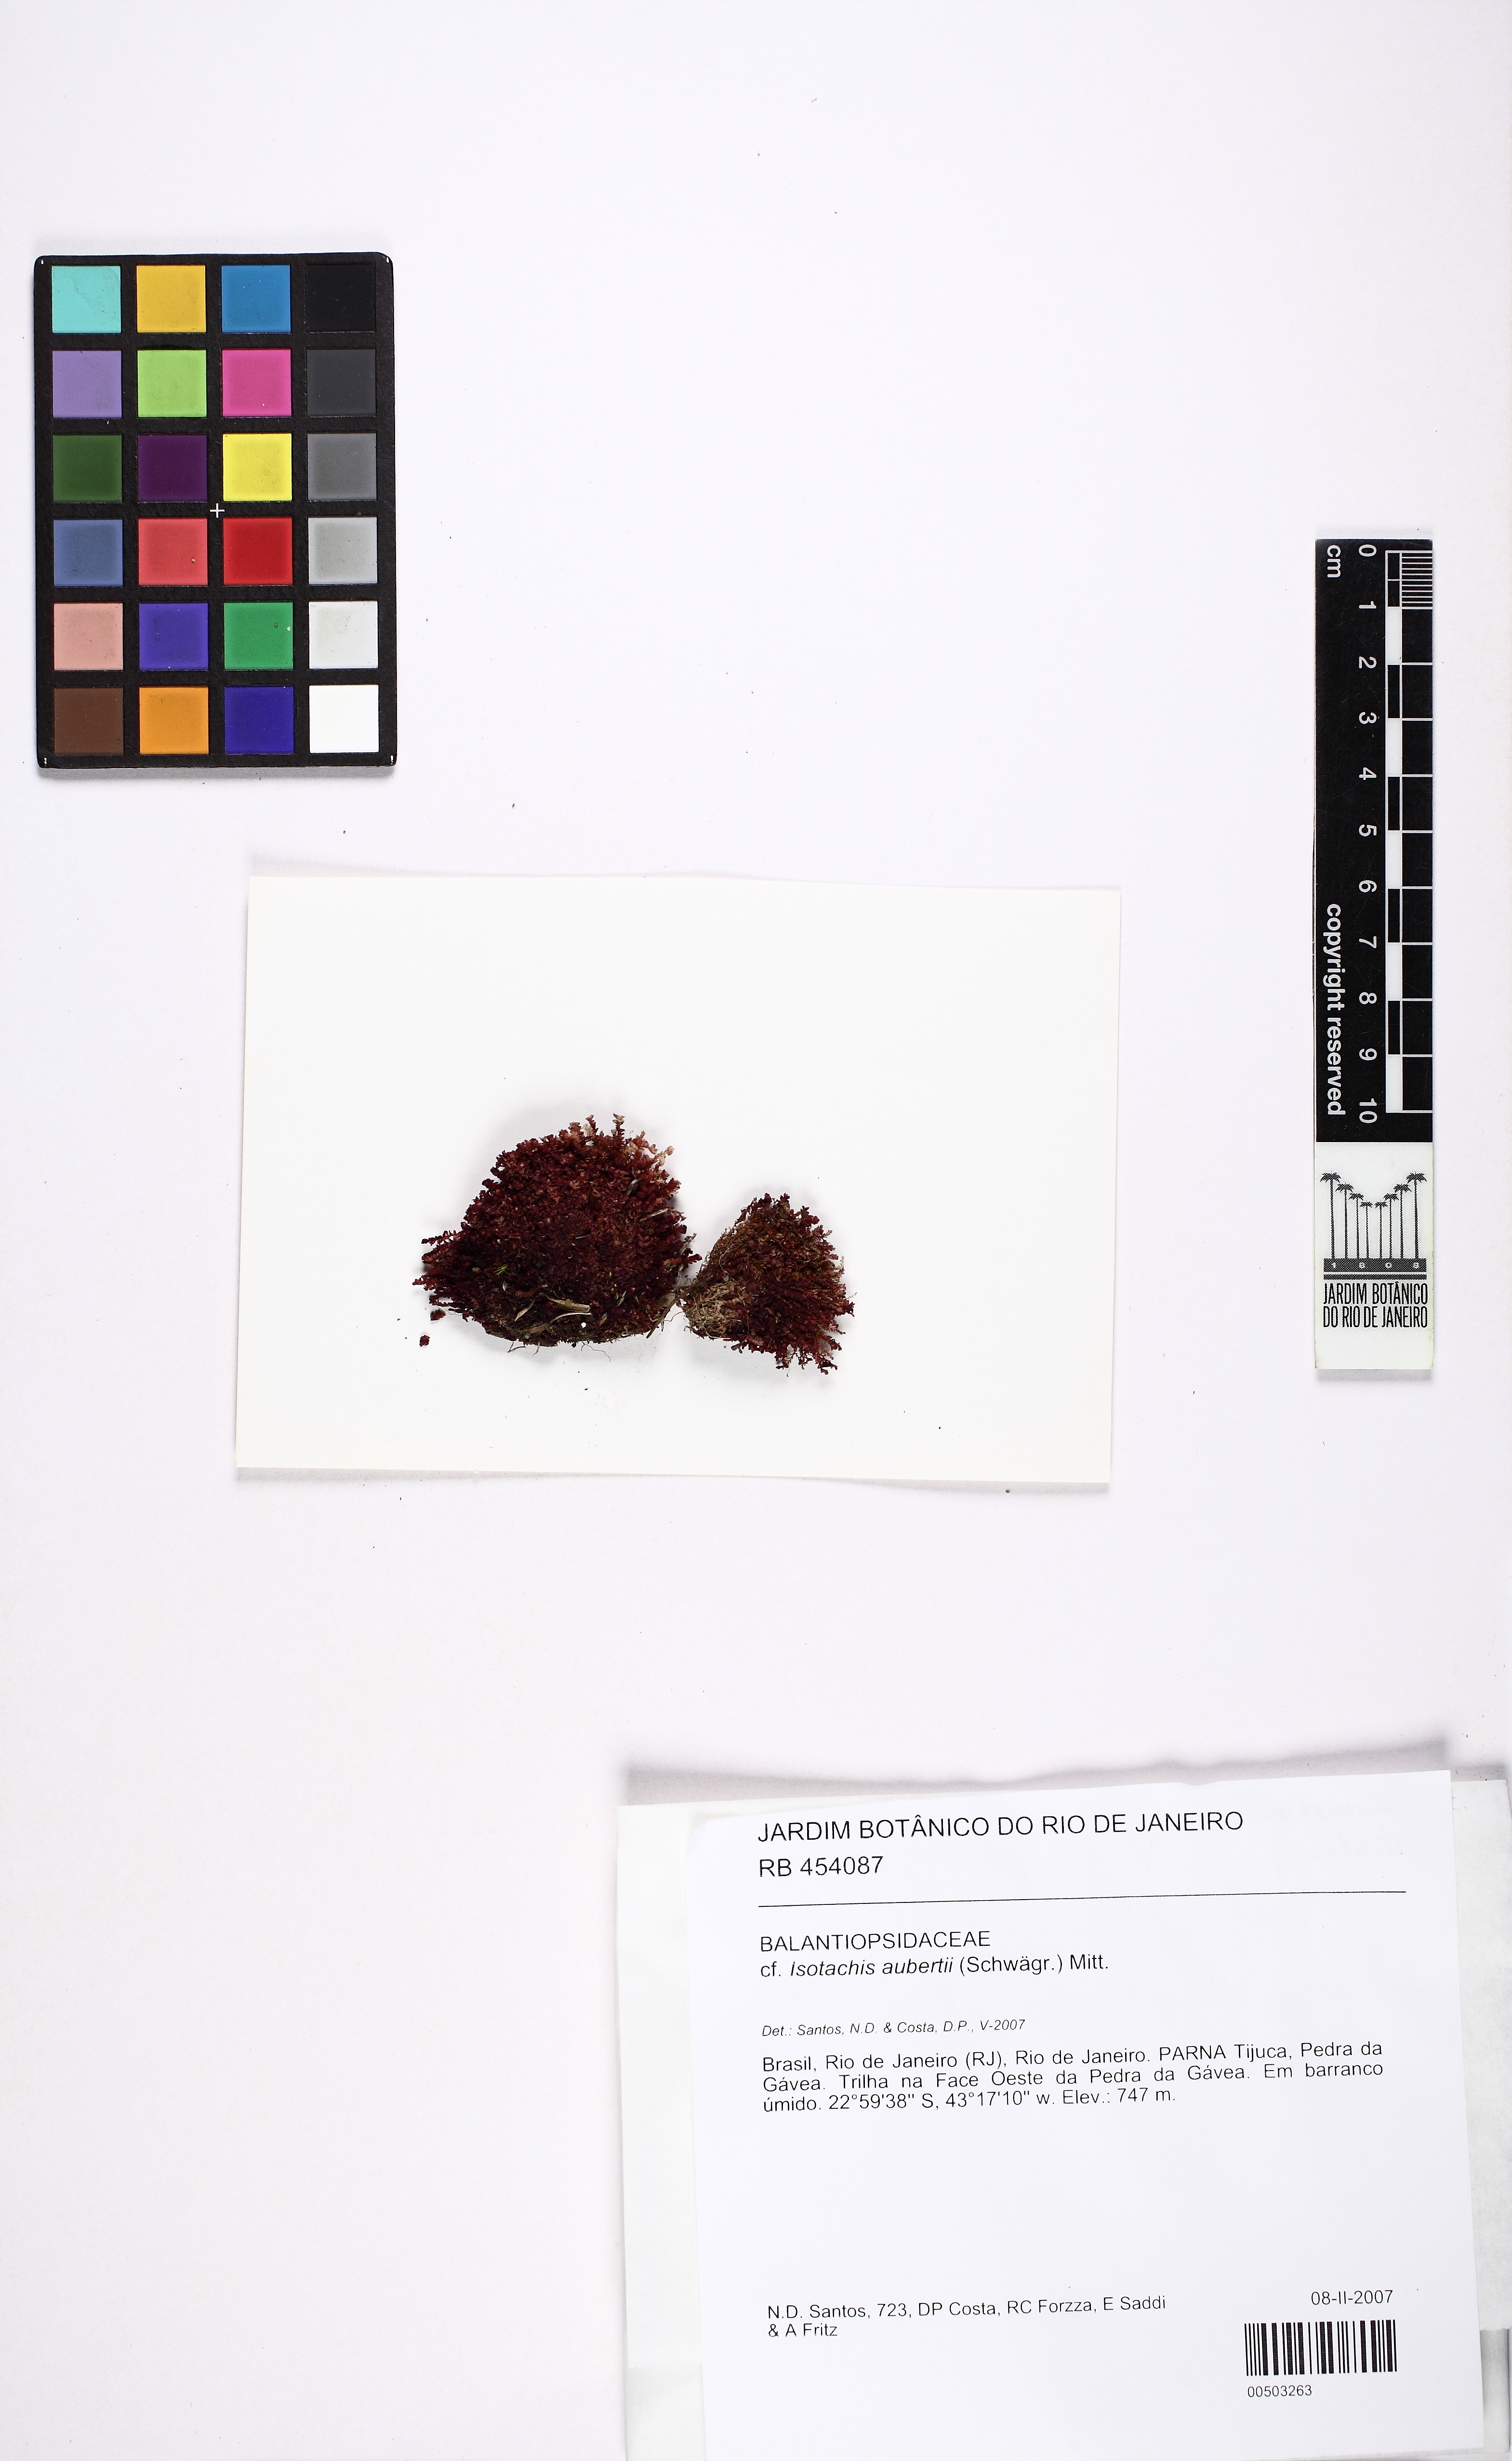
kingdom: Plantae
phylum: Marchantiophyta
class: Jungermanniopsida
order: Jungermanniales
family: Balantiopsidaceae
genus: Isotachis
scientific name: Isotachis aubertii
